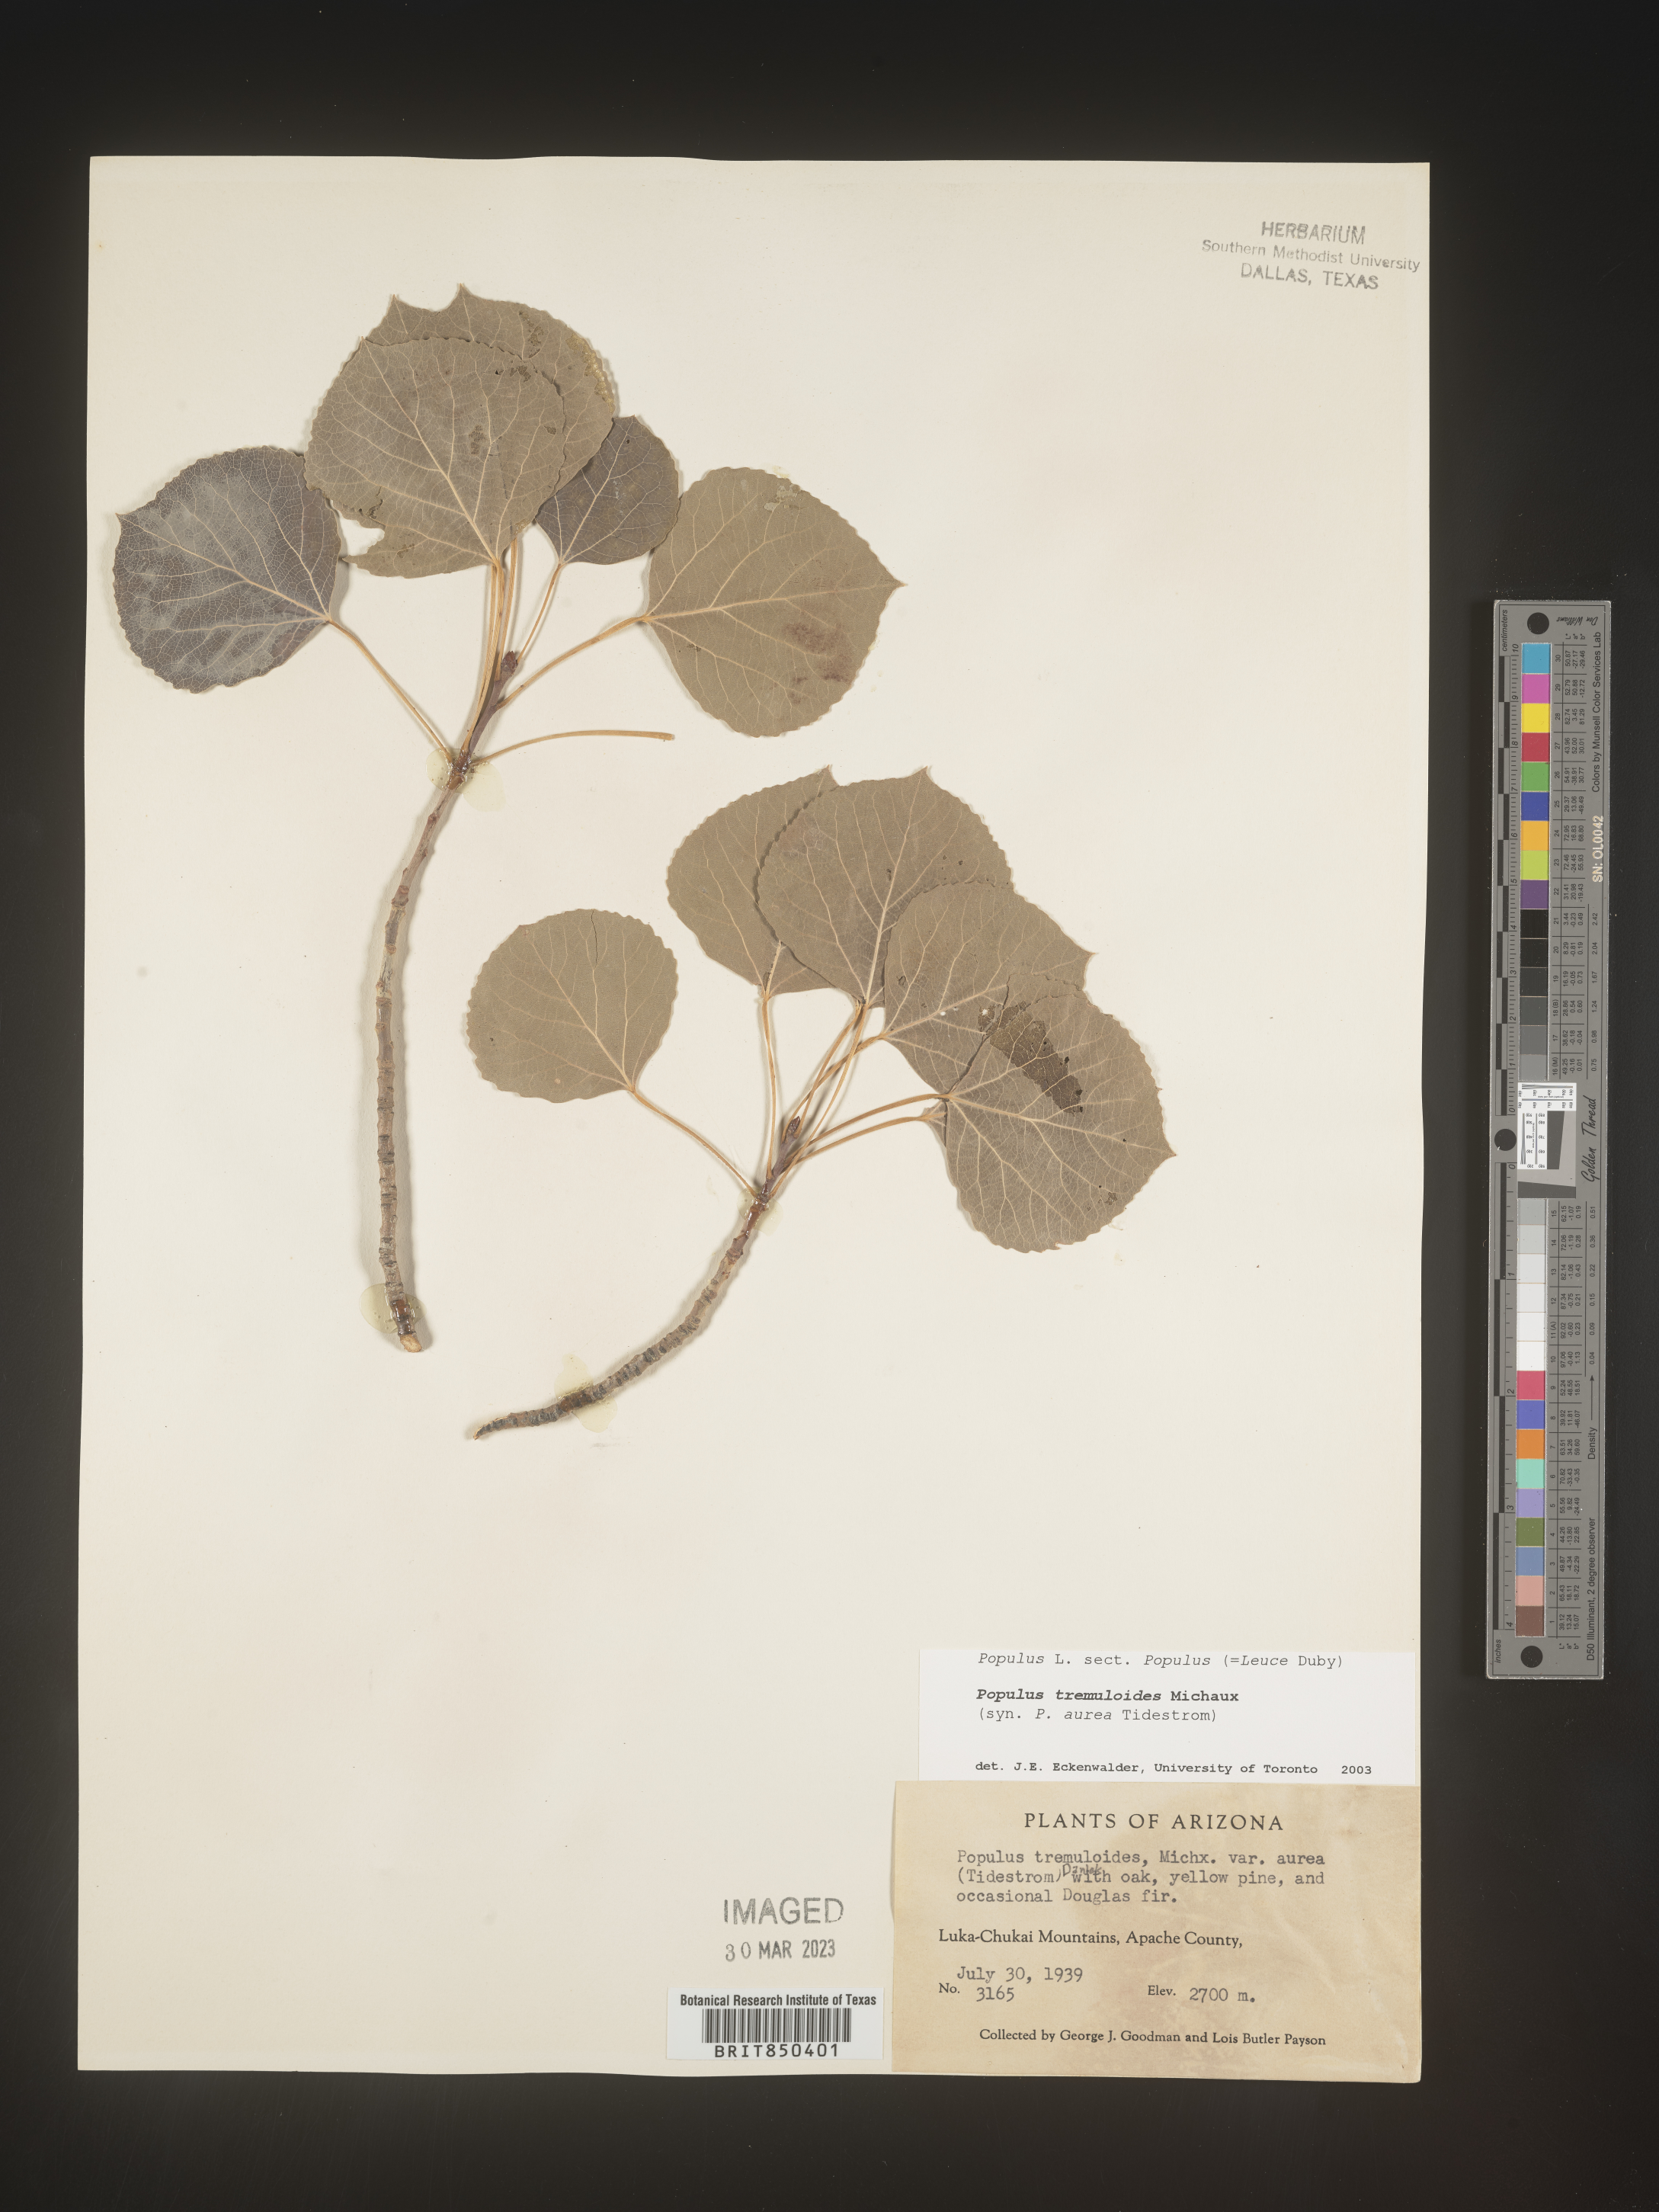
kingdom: Plantae
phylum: Tracheophyta
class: Magnoliopsida
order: Malpighiales
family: Salicaceae
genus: Populus
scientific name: Populus tremuloides
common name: Quaking aspen
